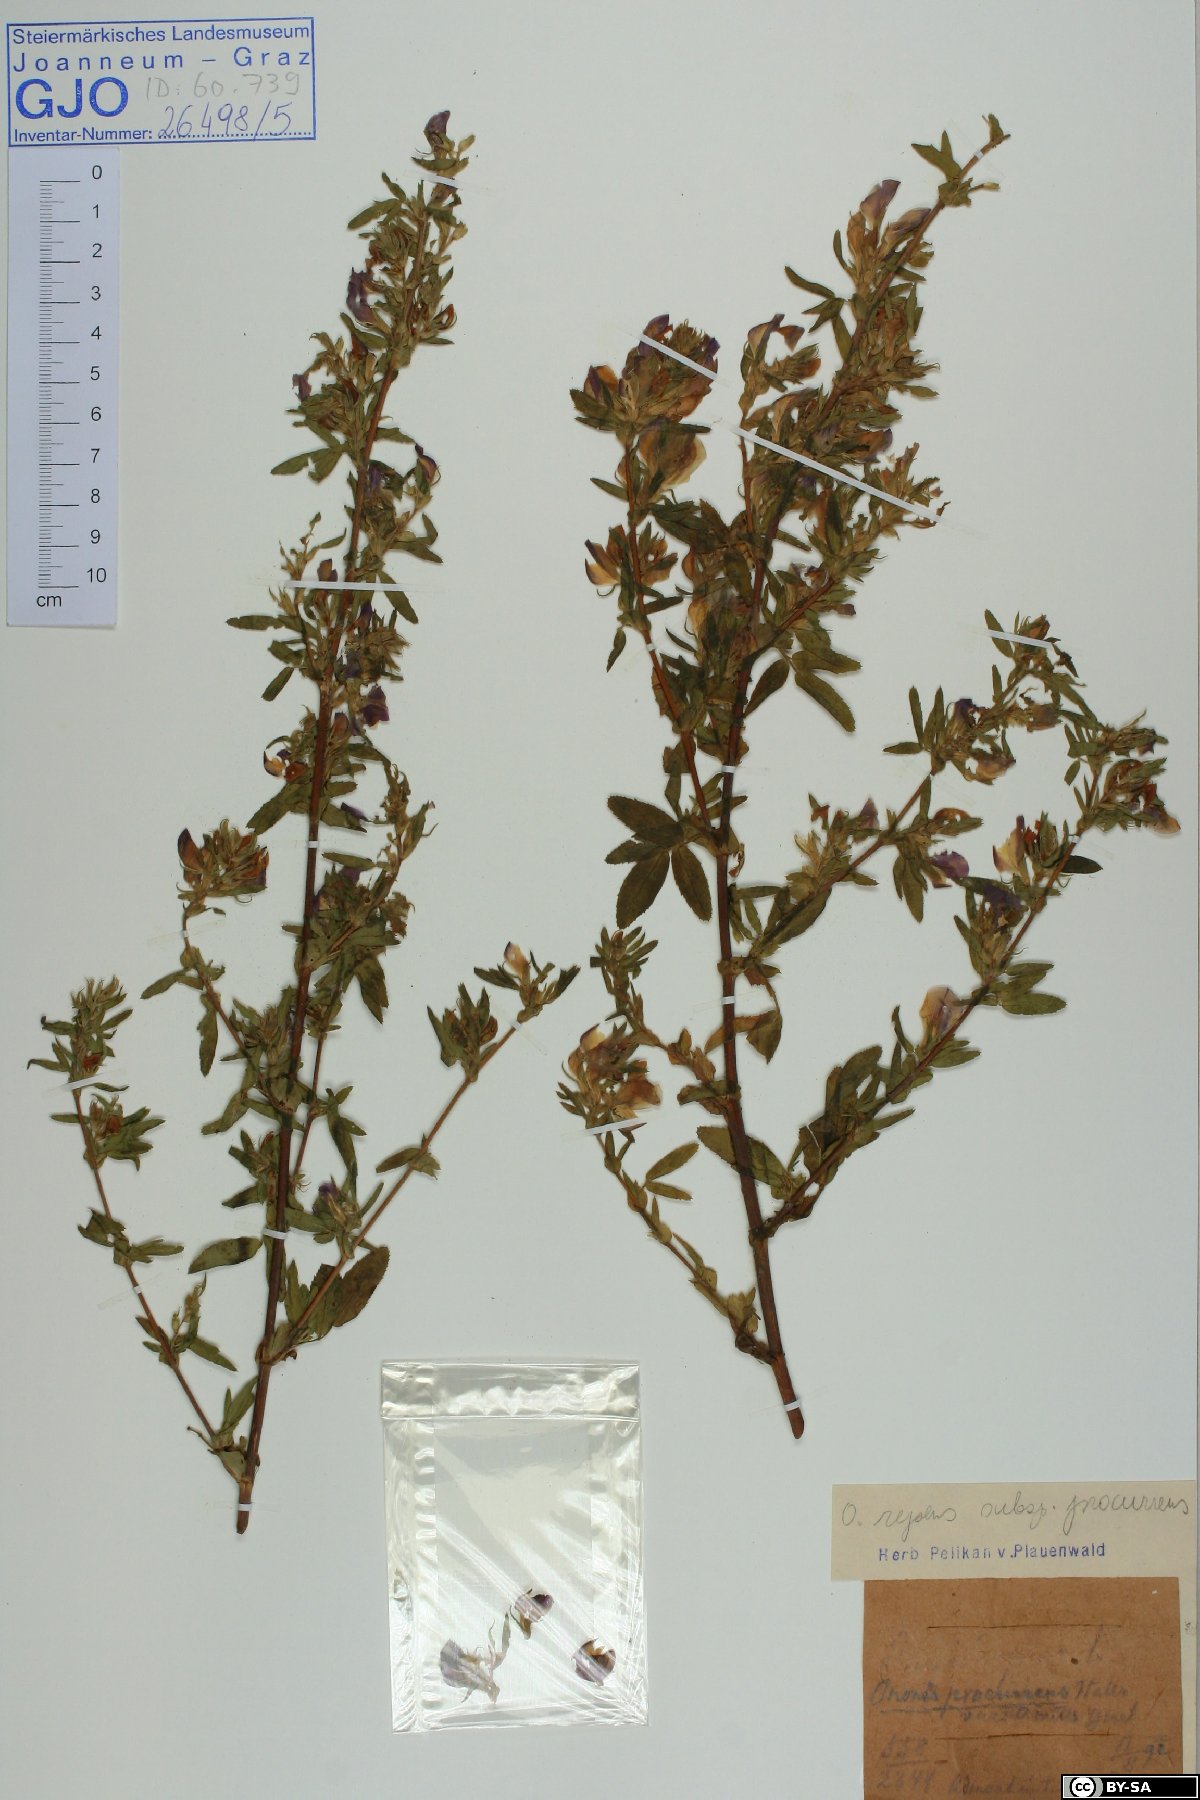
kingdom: Plantae
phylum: Tracheophyta
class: Magnoliopsida
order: Fabales
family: Fabaceae
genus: Ononis
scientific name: Ononis spinosa
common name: Spiny restharrow
